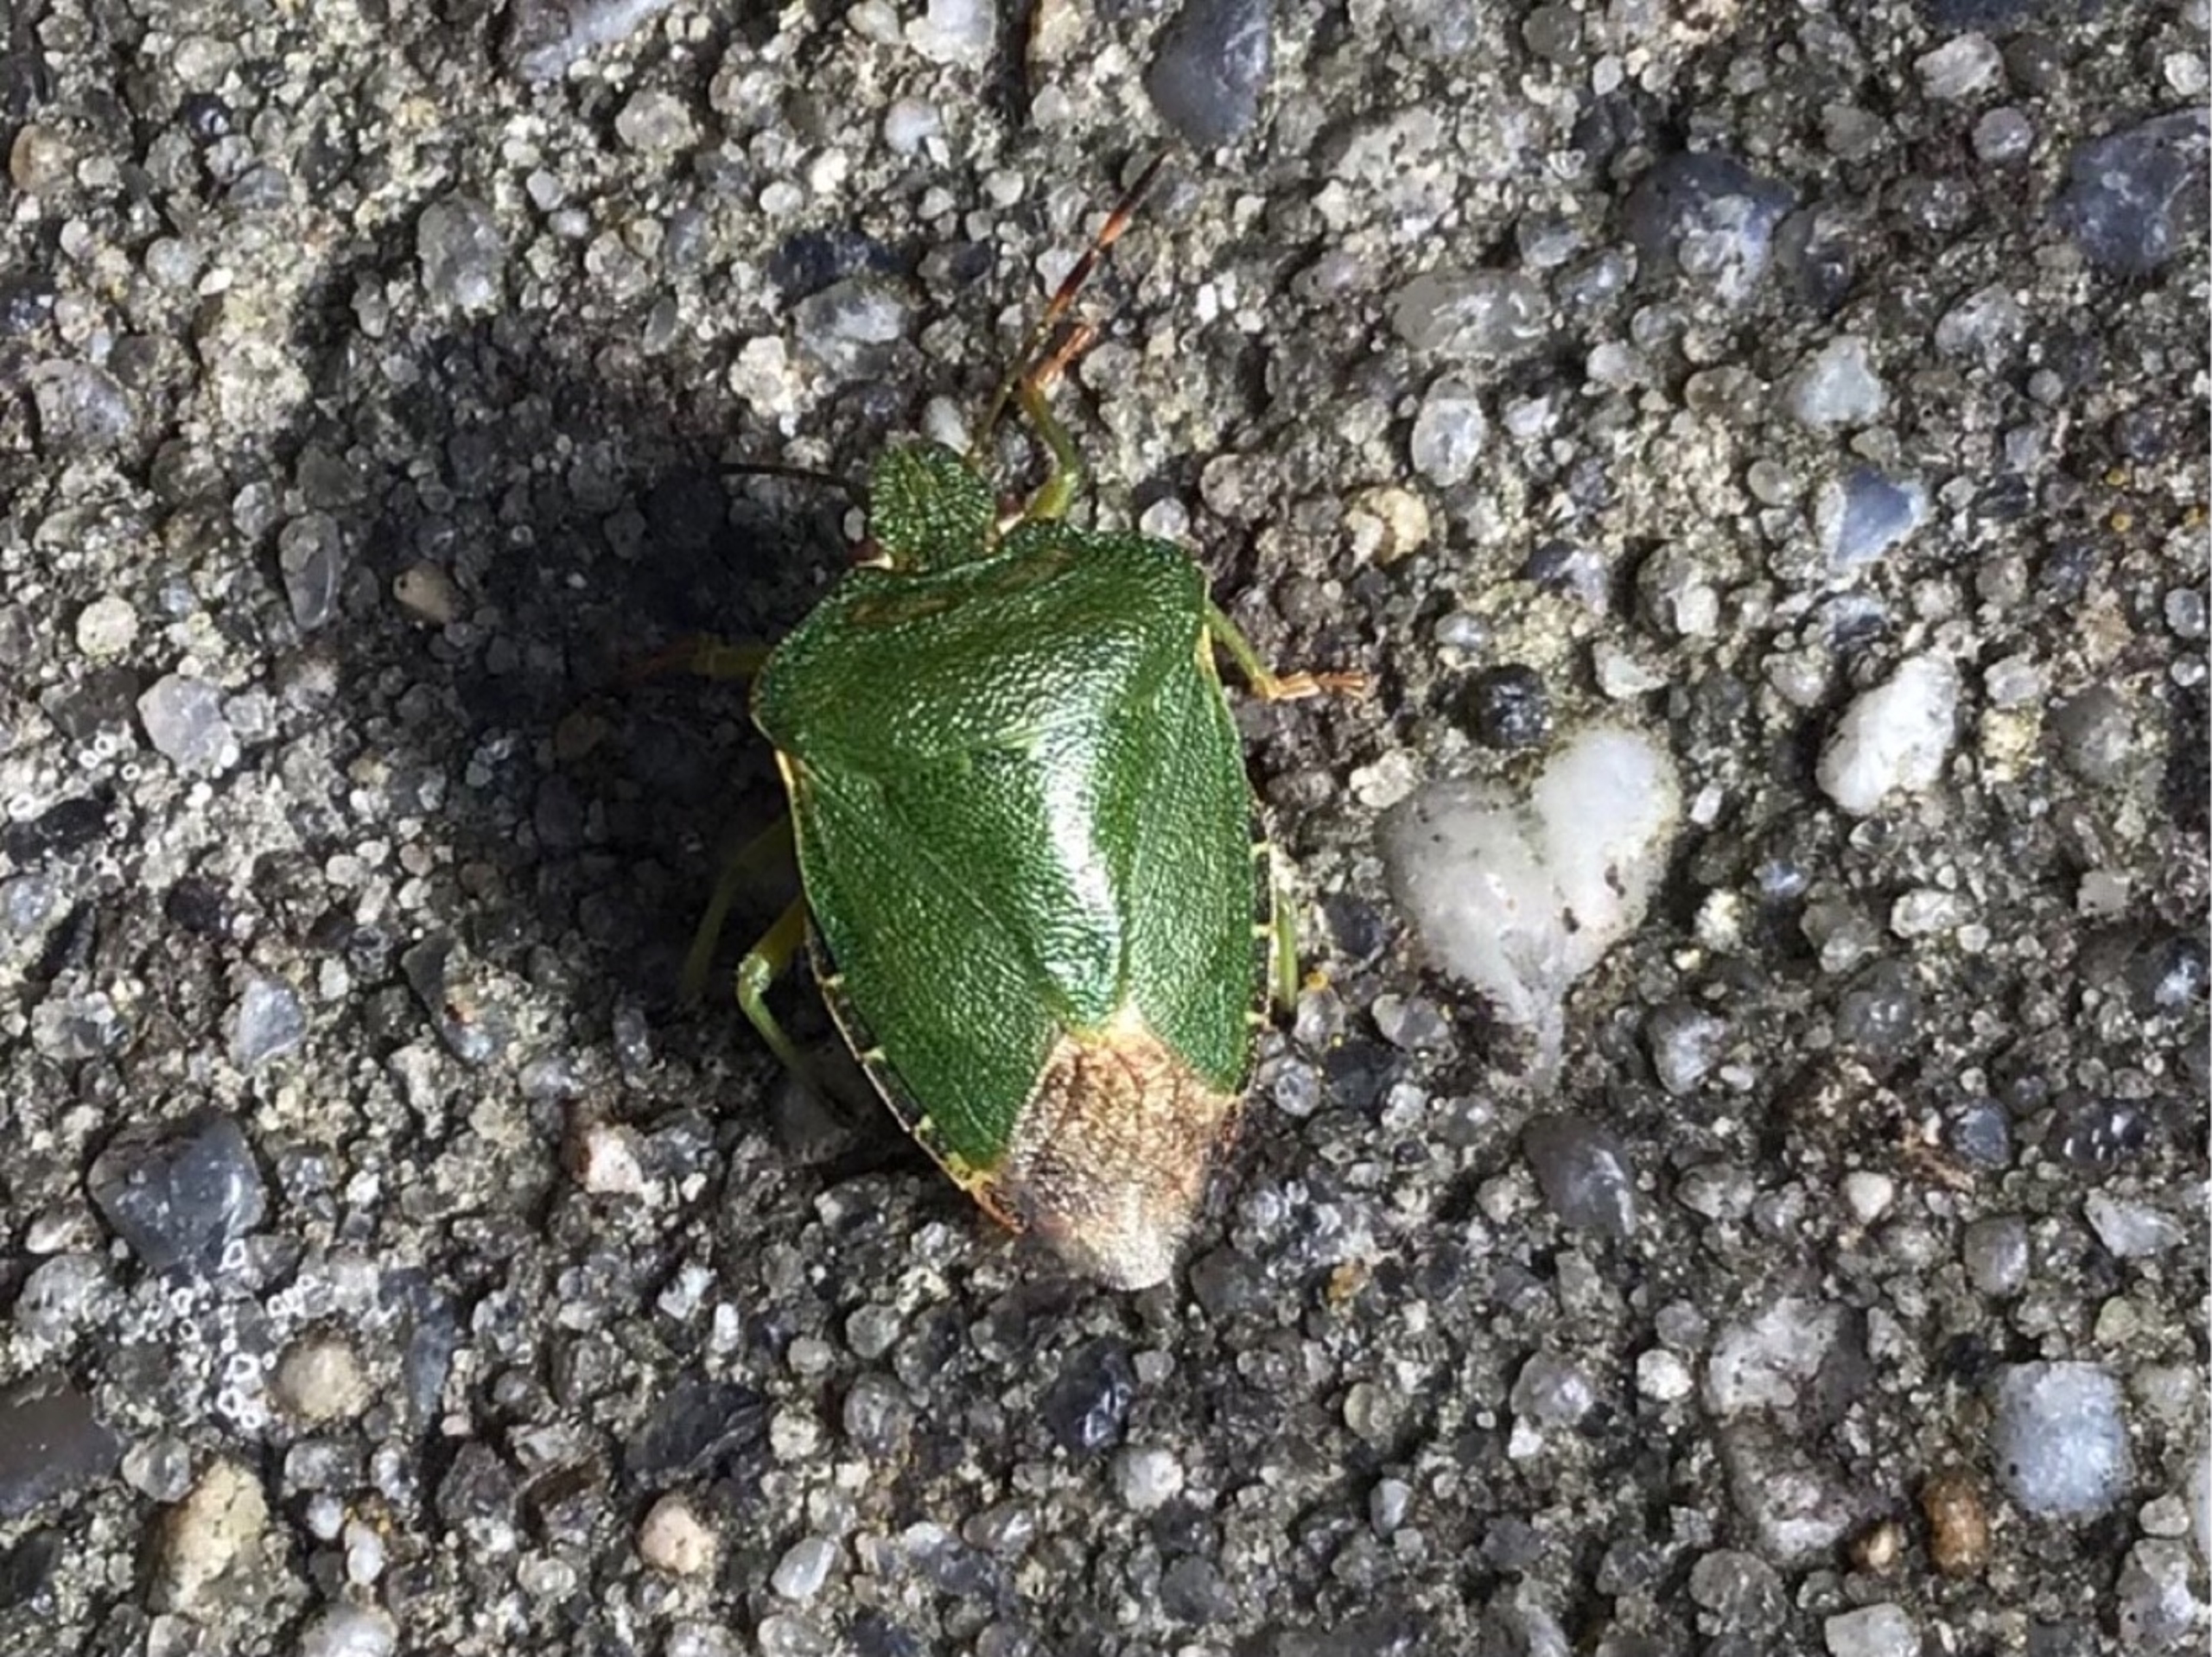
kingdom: Animalia
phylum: Arthropoda
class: Insecta
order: Hemiptera
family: Pentatomidae
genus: Palomena
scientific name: Palomena prasina
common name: Grøn bredtæge
